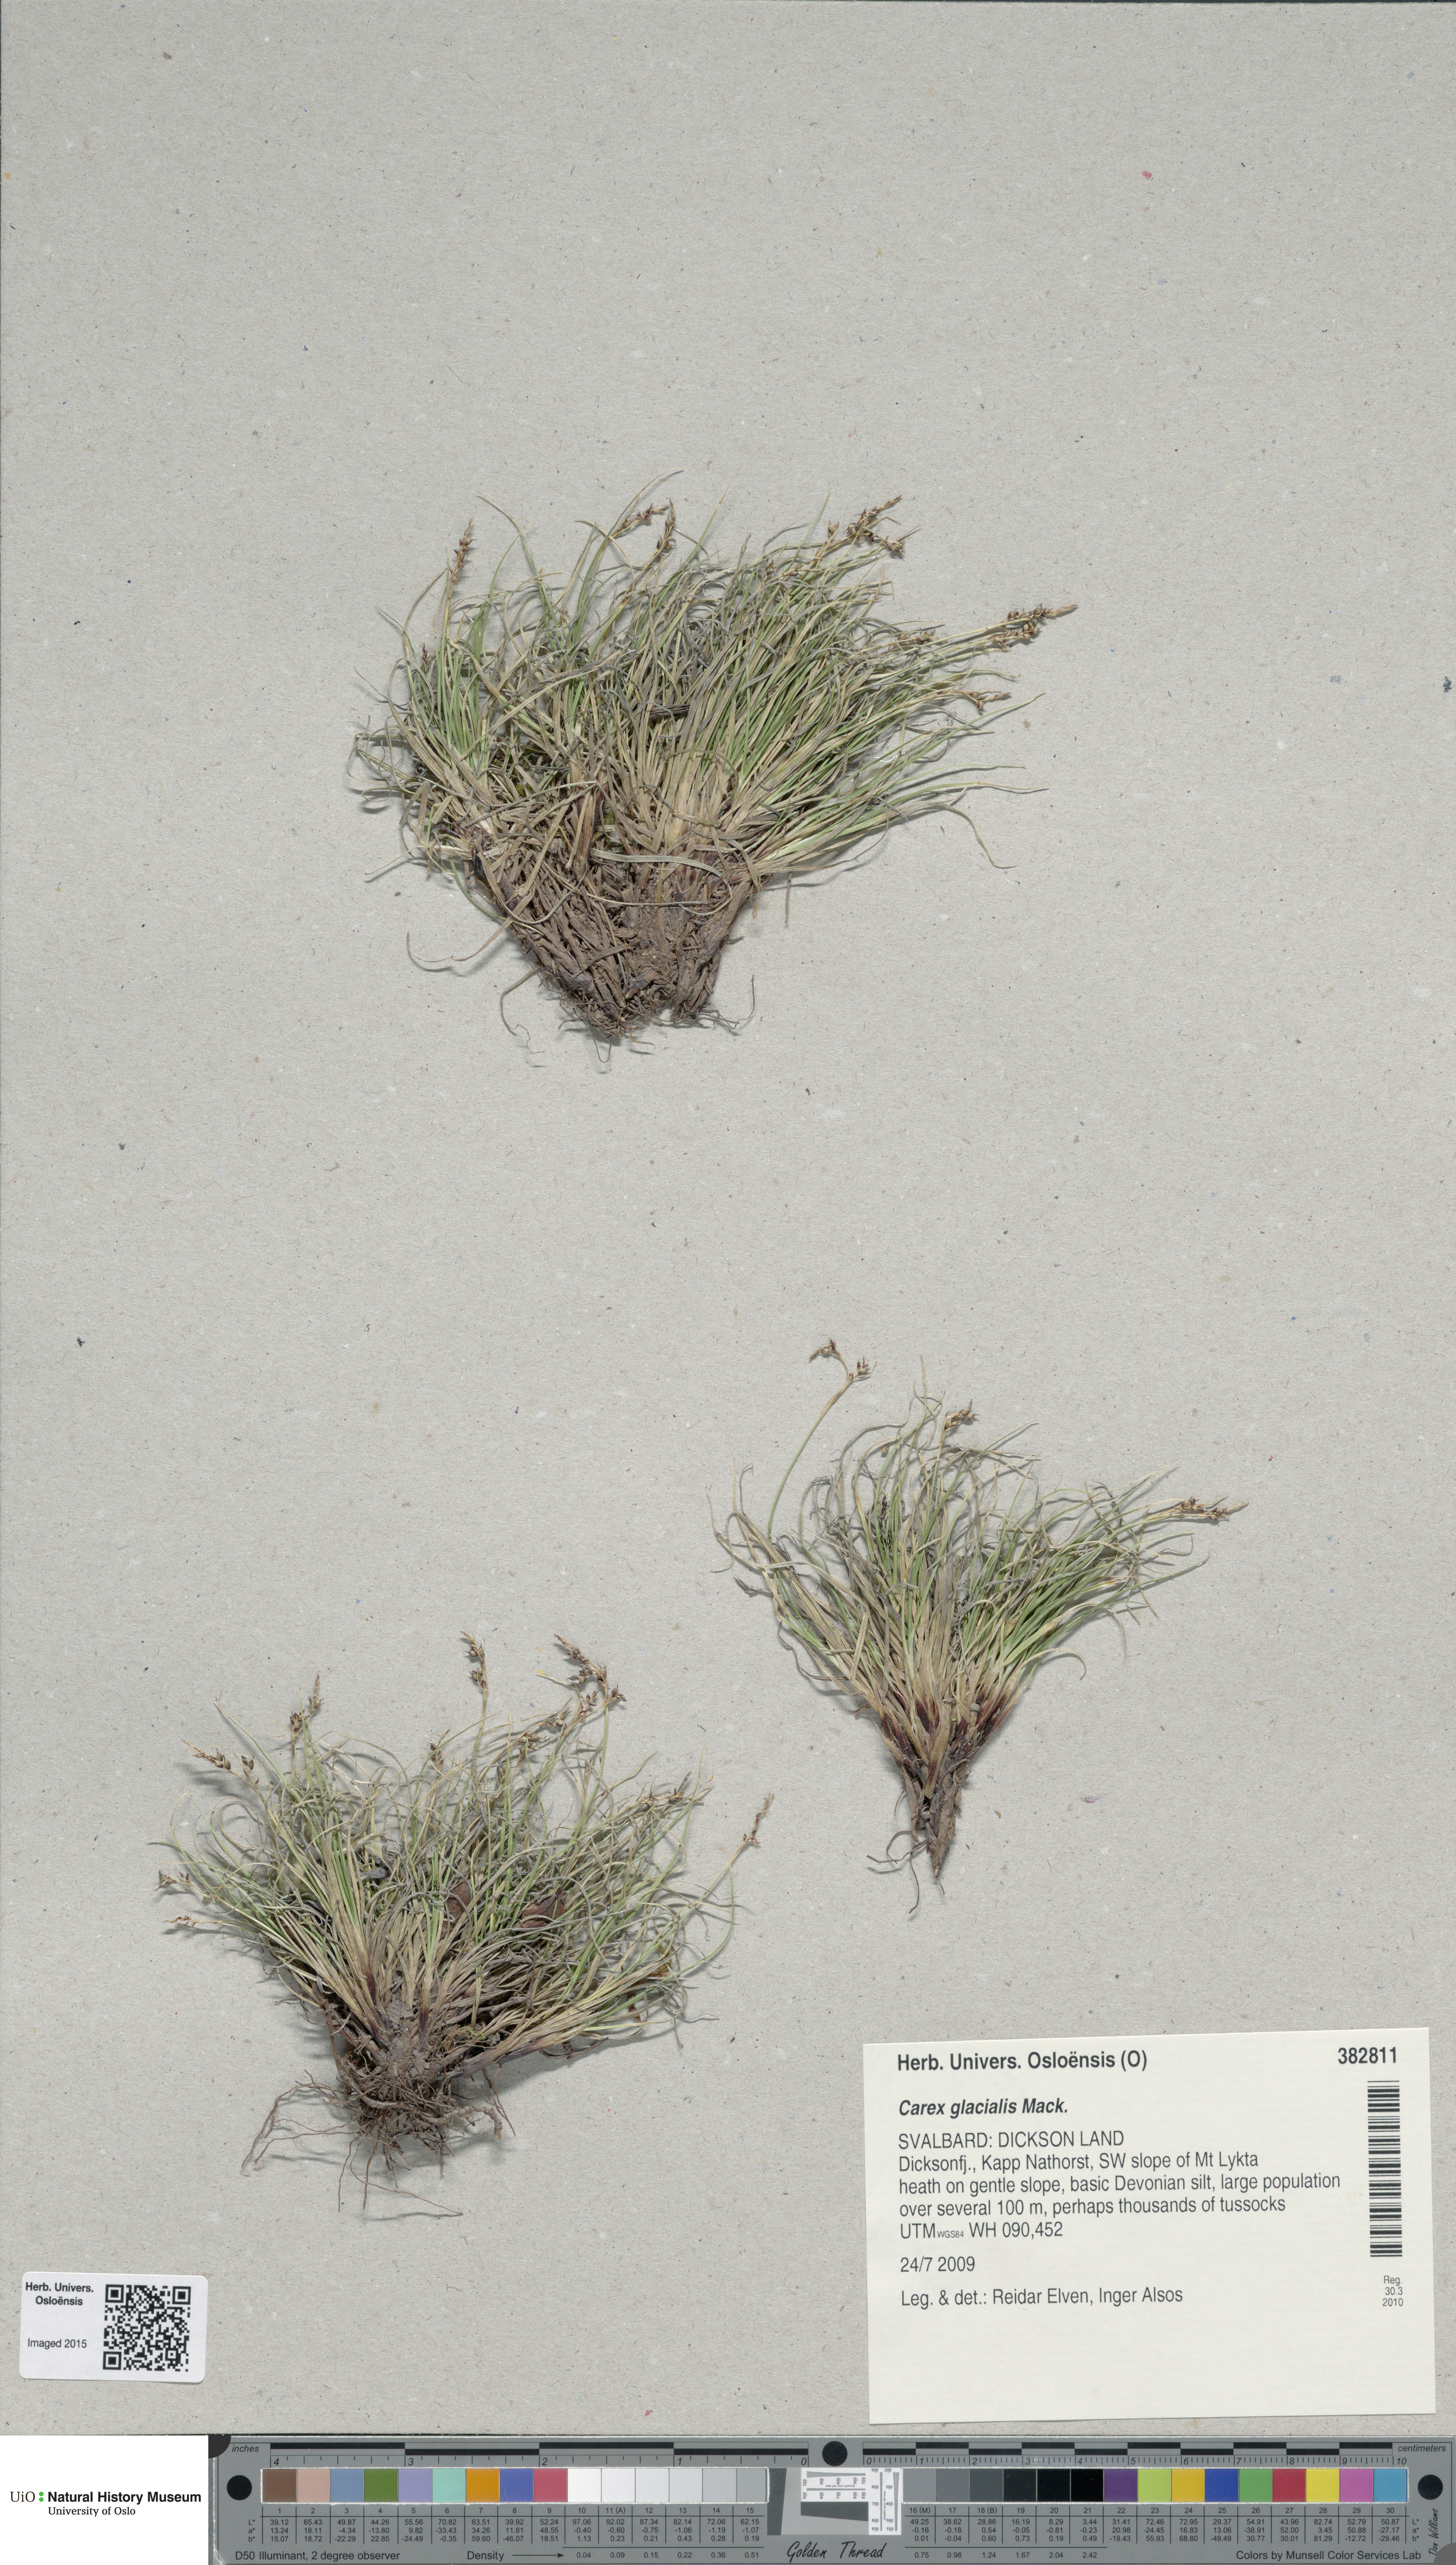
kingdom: Plantae
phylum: Tracheophyta
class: Liliopsida
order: Poales
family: Cyperaceae
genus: Carex
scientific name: Carex glacialis
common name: Newfoundland sedge
